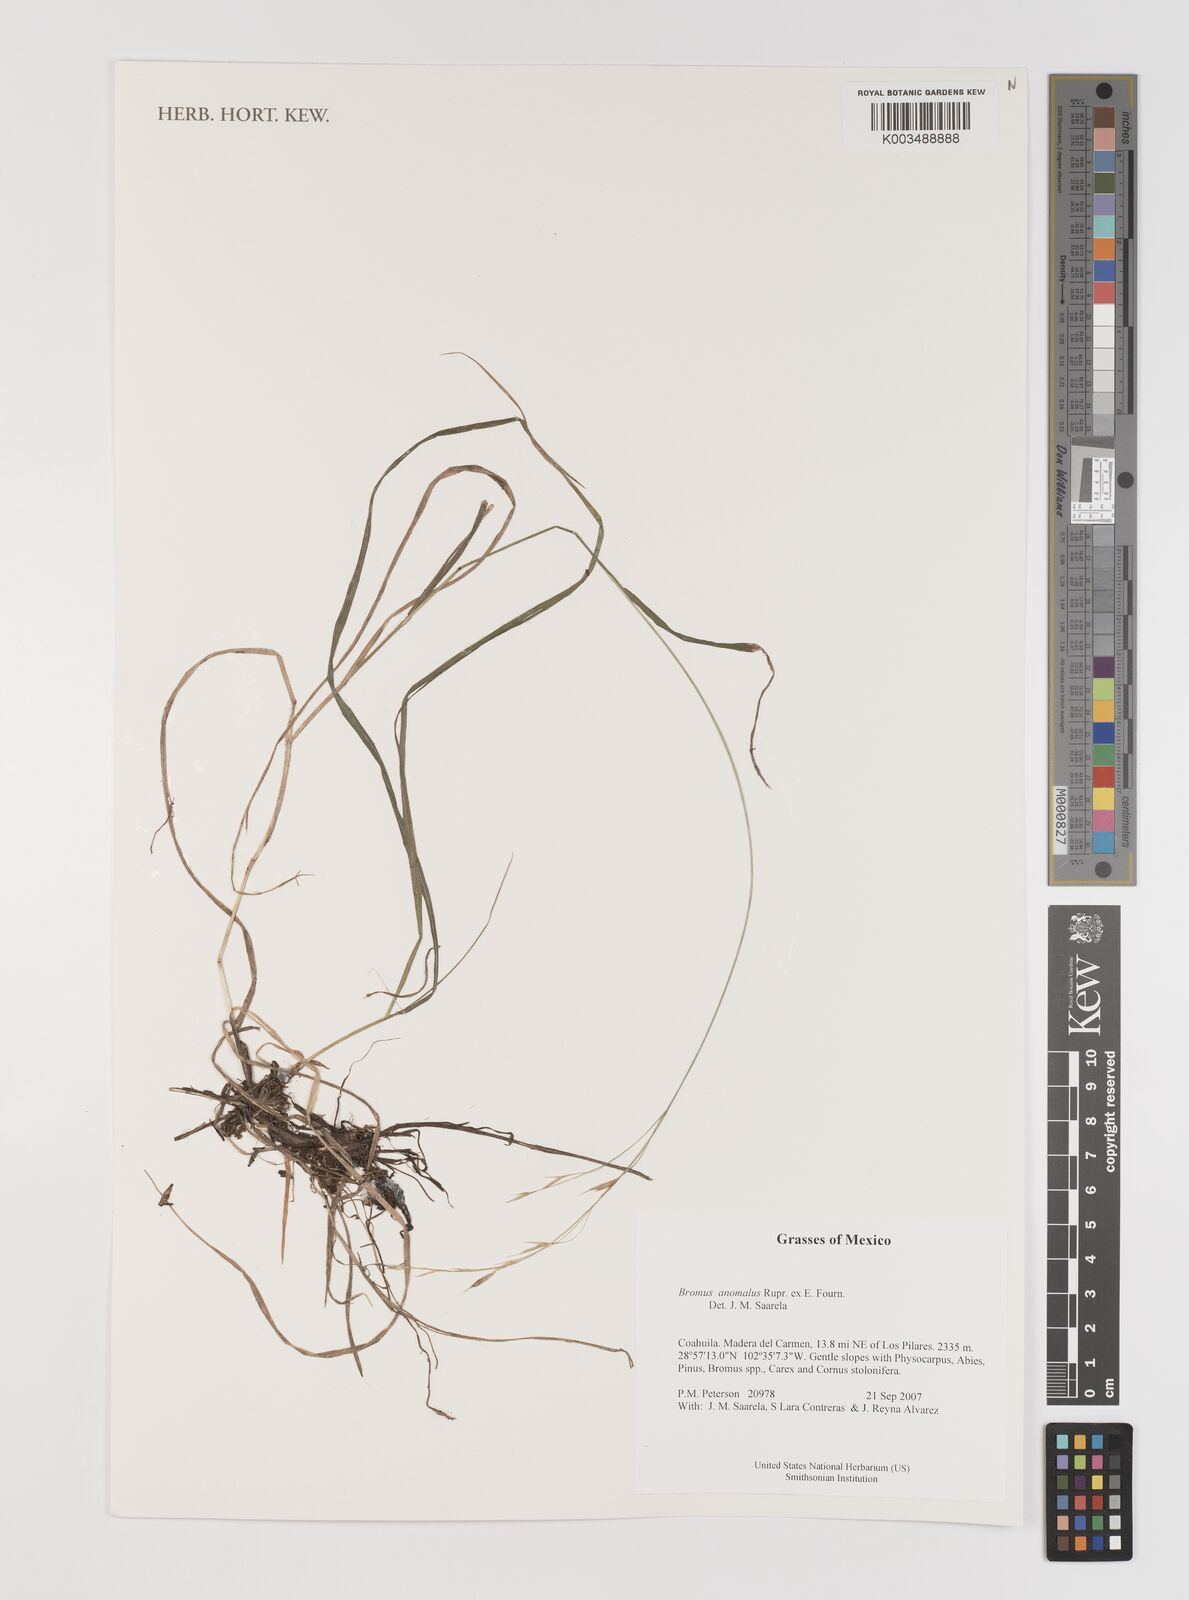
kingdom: Plantae
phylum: Tracheophyta
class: Liliopsida
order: Poales
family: Poaceae
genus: Bromus
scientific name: Bromus anomalus
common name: Nodding brome
